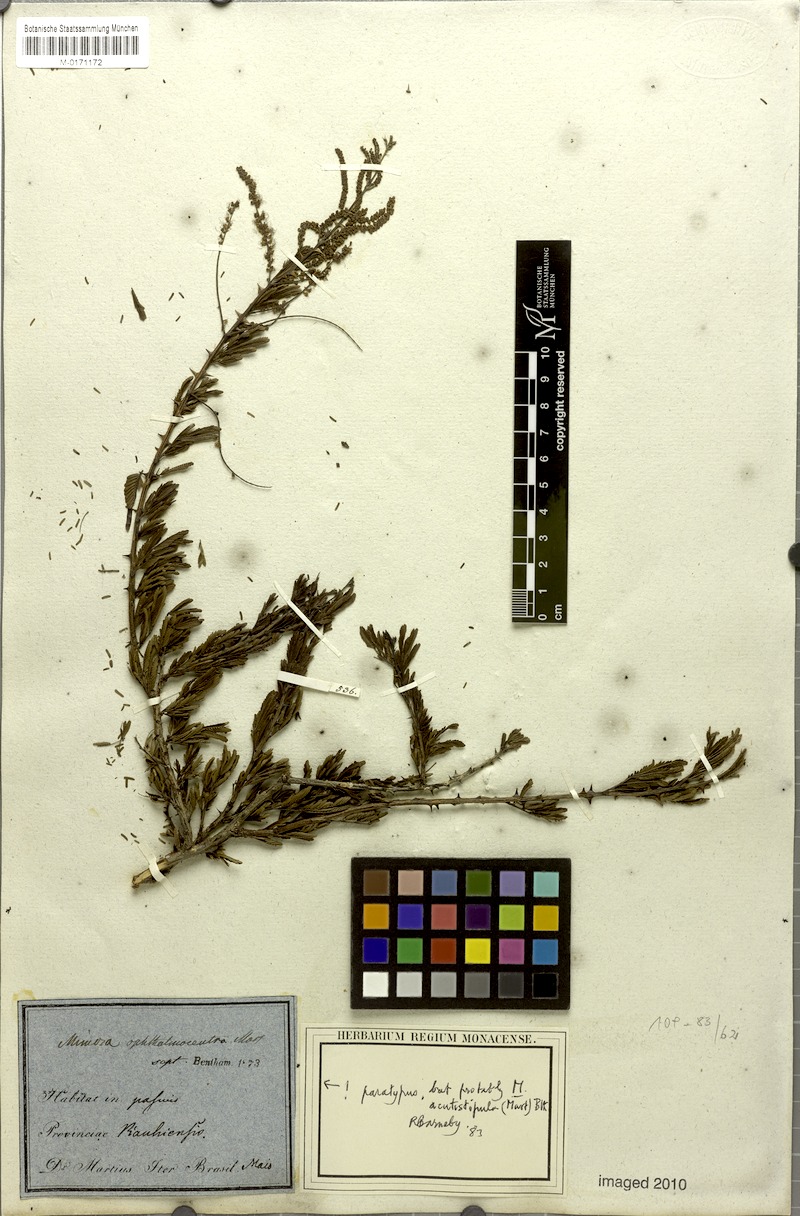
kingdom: Plantae
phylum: Tracheophyta
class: Magnoliopsida
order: Fabales
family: Fabaceae
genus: Mimosa
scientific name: Mimosa ophthalmocentra
